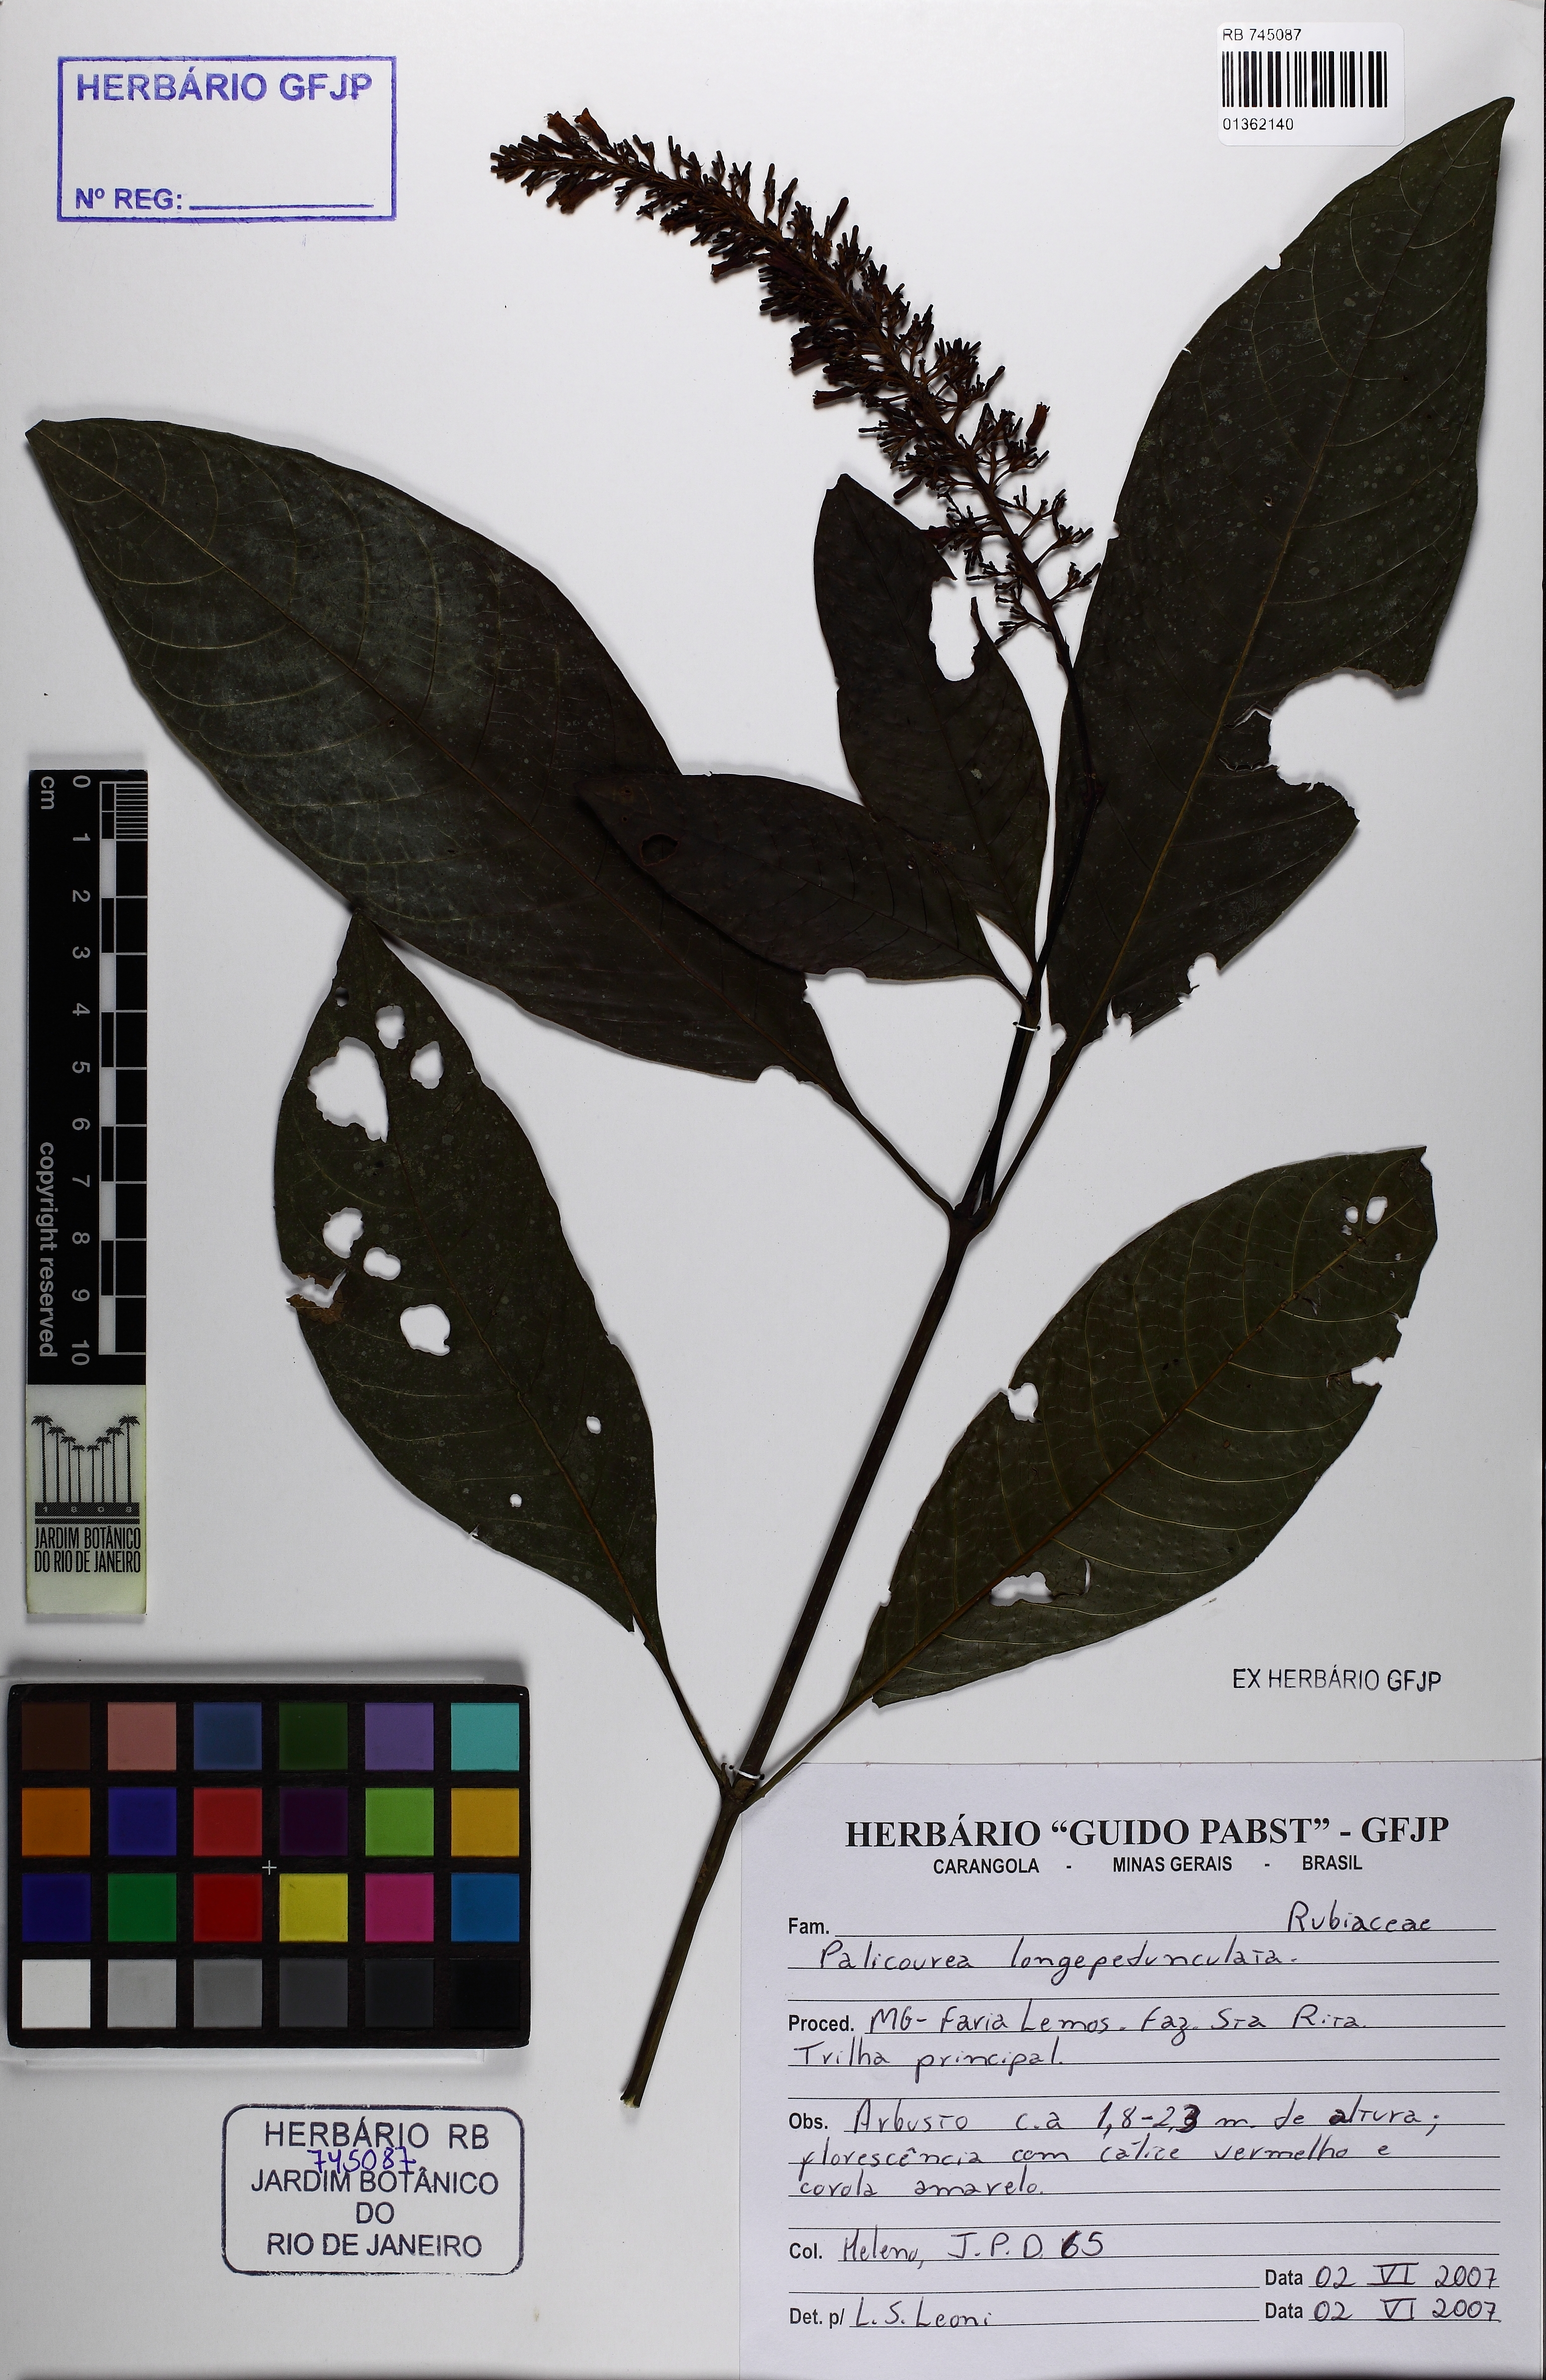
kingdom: Plantae
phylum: Tracheophyta
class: Magnoliopsida
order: Gentianales
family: Rubiaceae
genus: Palicourea
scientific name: Palicourea longipedunculata
